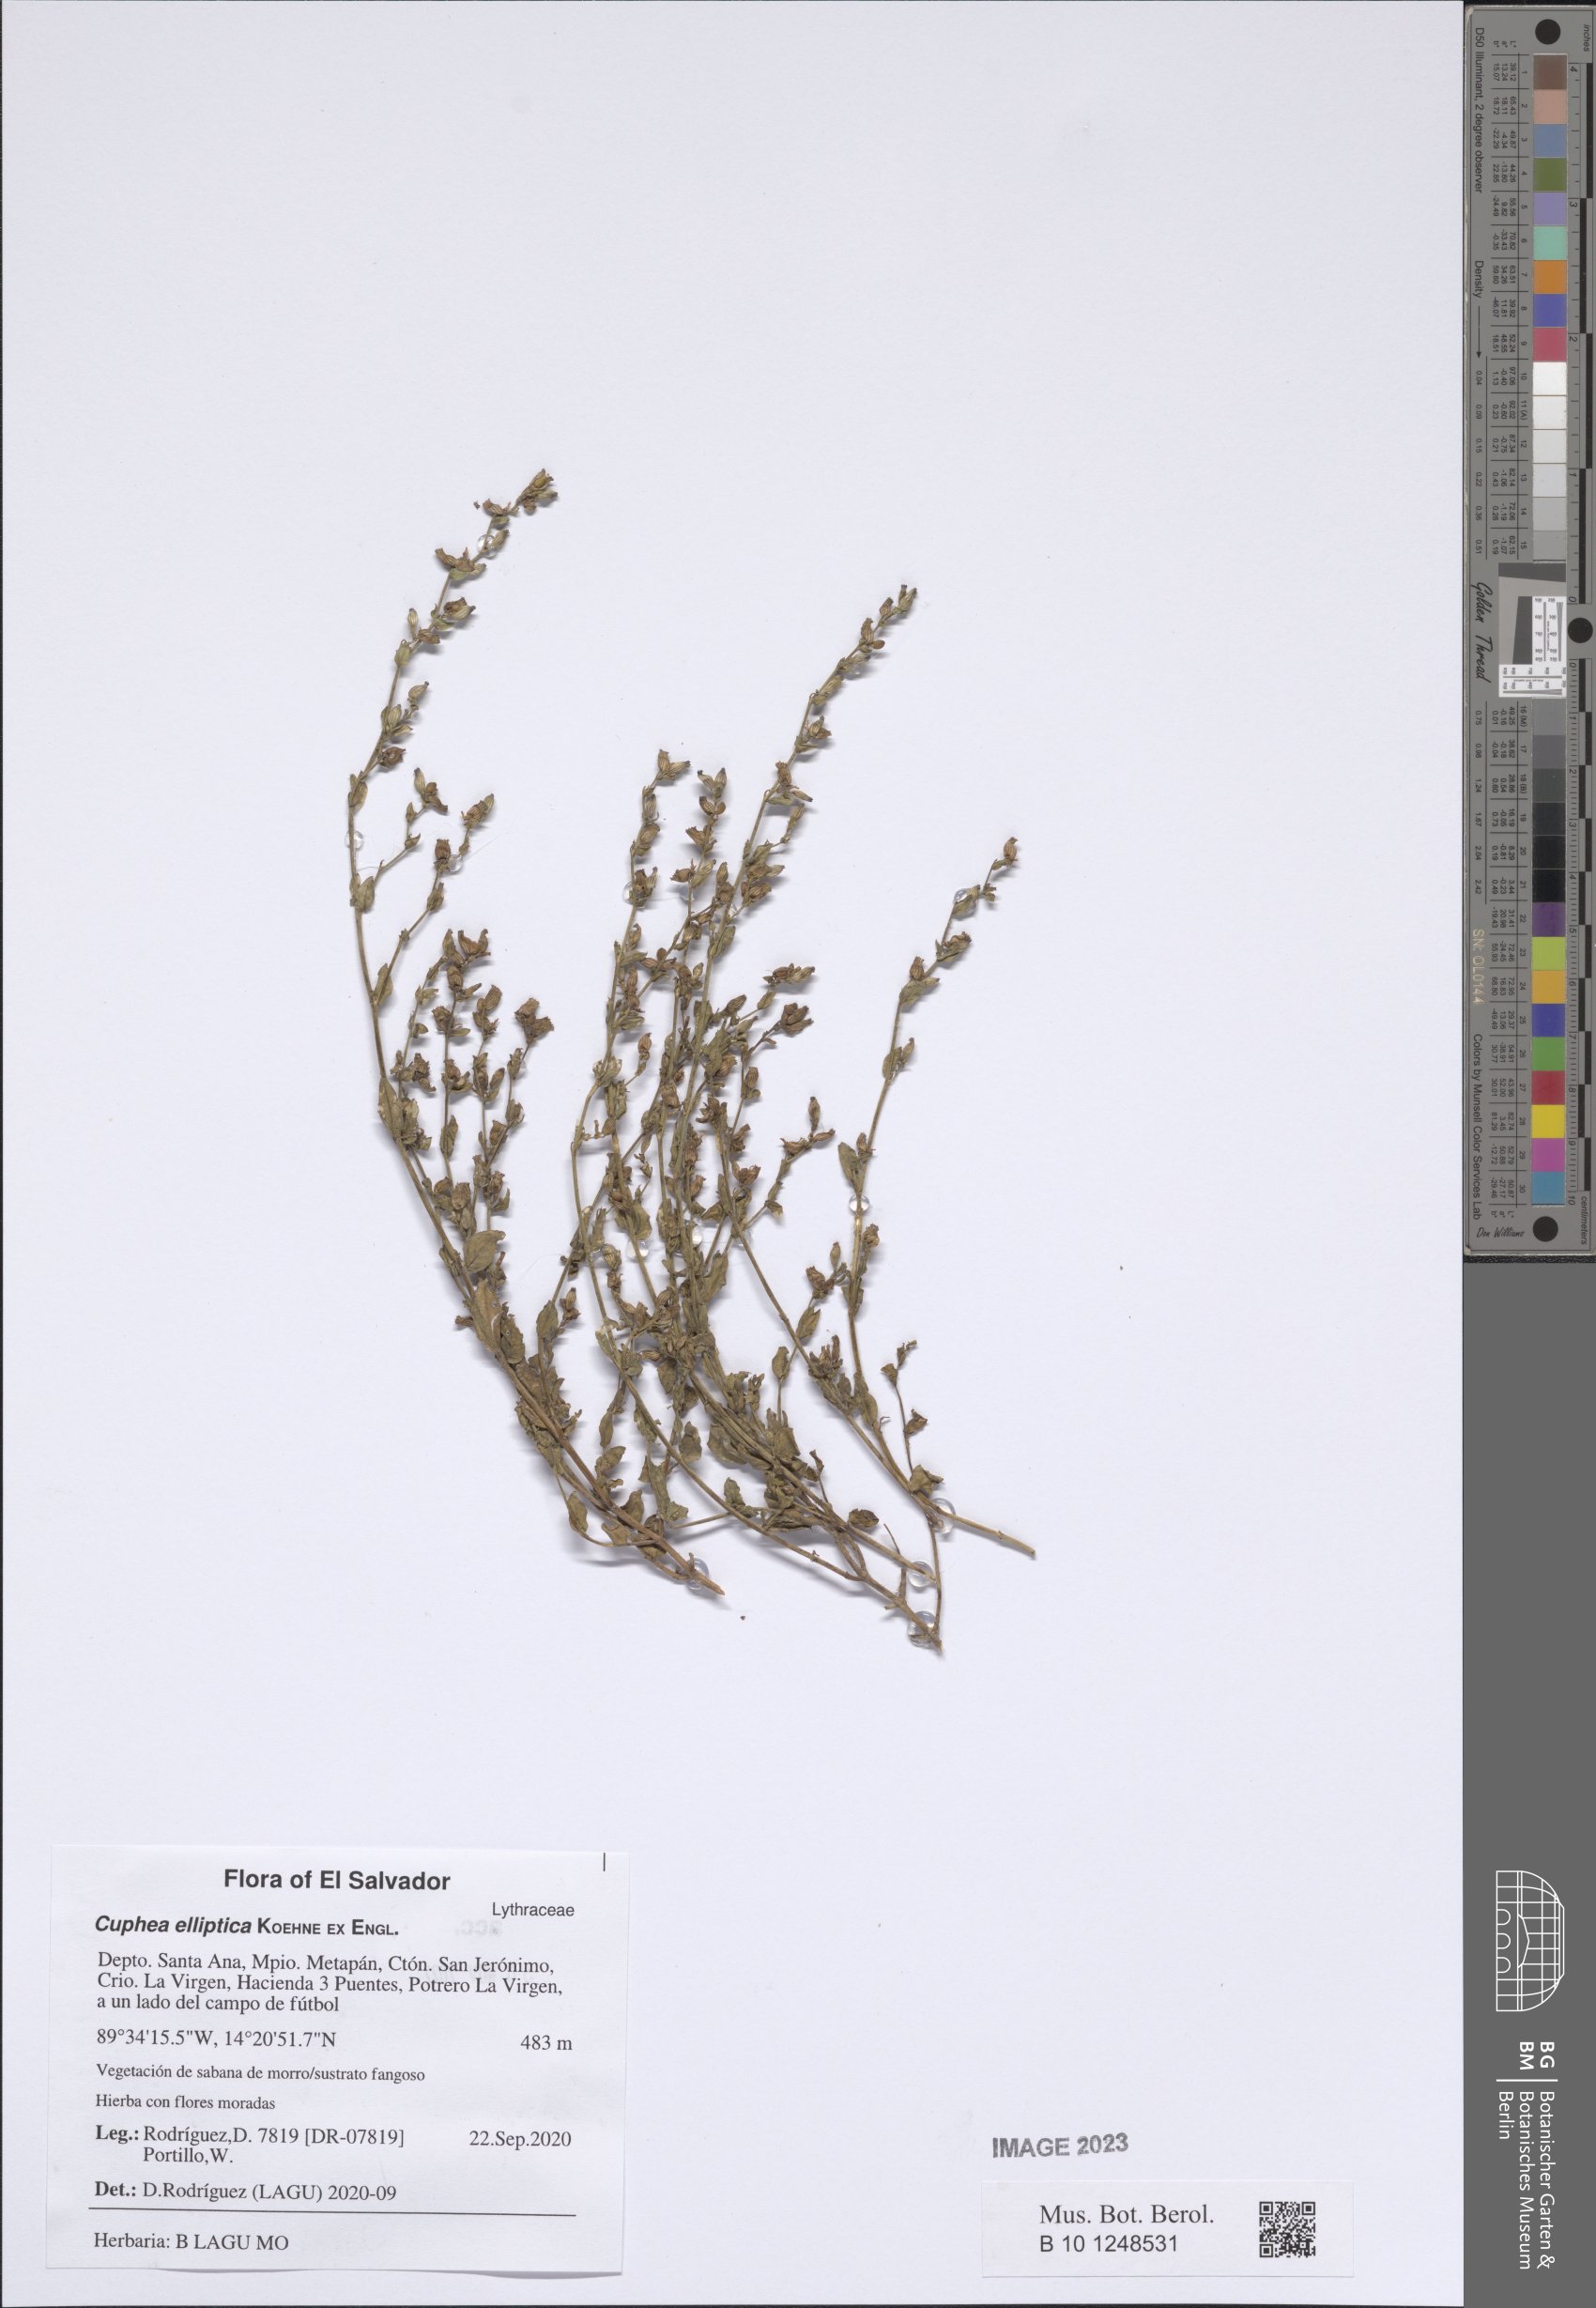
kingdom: Plantae
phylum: Tracheophyta
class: Magnoliopsida
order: Myrtales
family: Lythraceae
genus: Cuphea
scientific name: Cuphea elliptica
